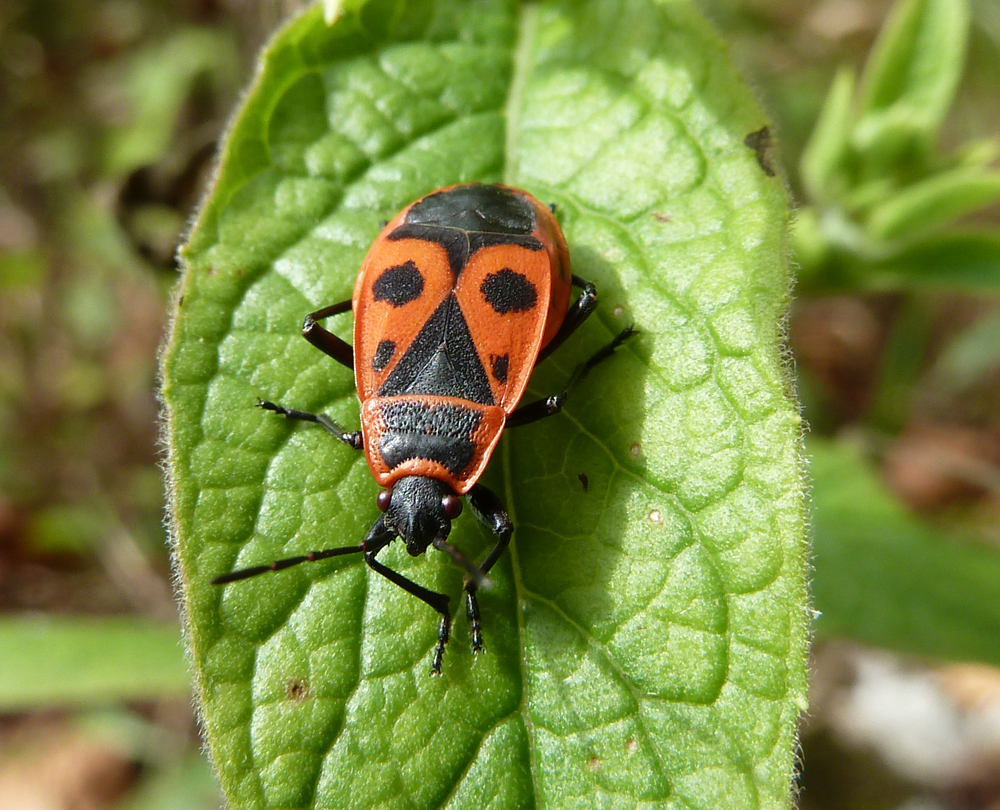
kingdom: Animalia
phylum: Arthropoda
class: Insecta
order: Hemiptera
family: Pyrrhocoridae
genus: Pyrrhocoris
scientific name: Pyrrhocoris apterus
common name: Firebug
